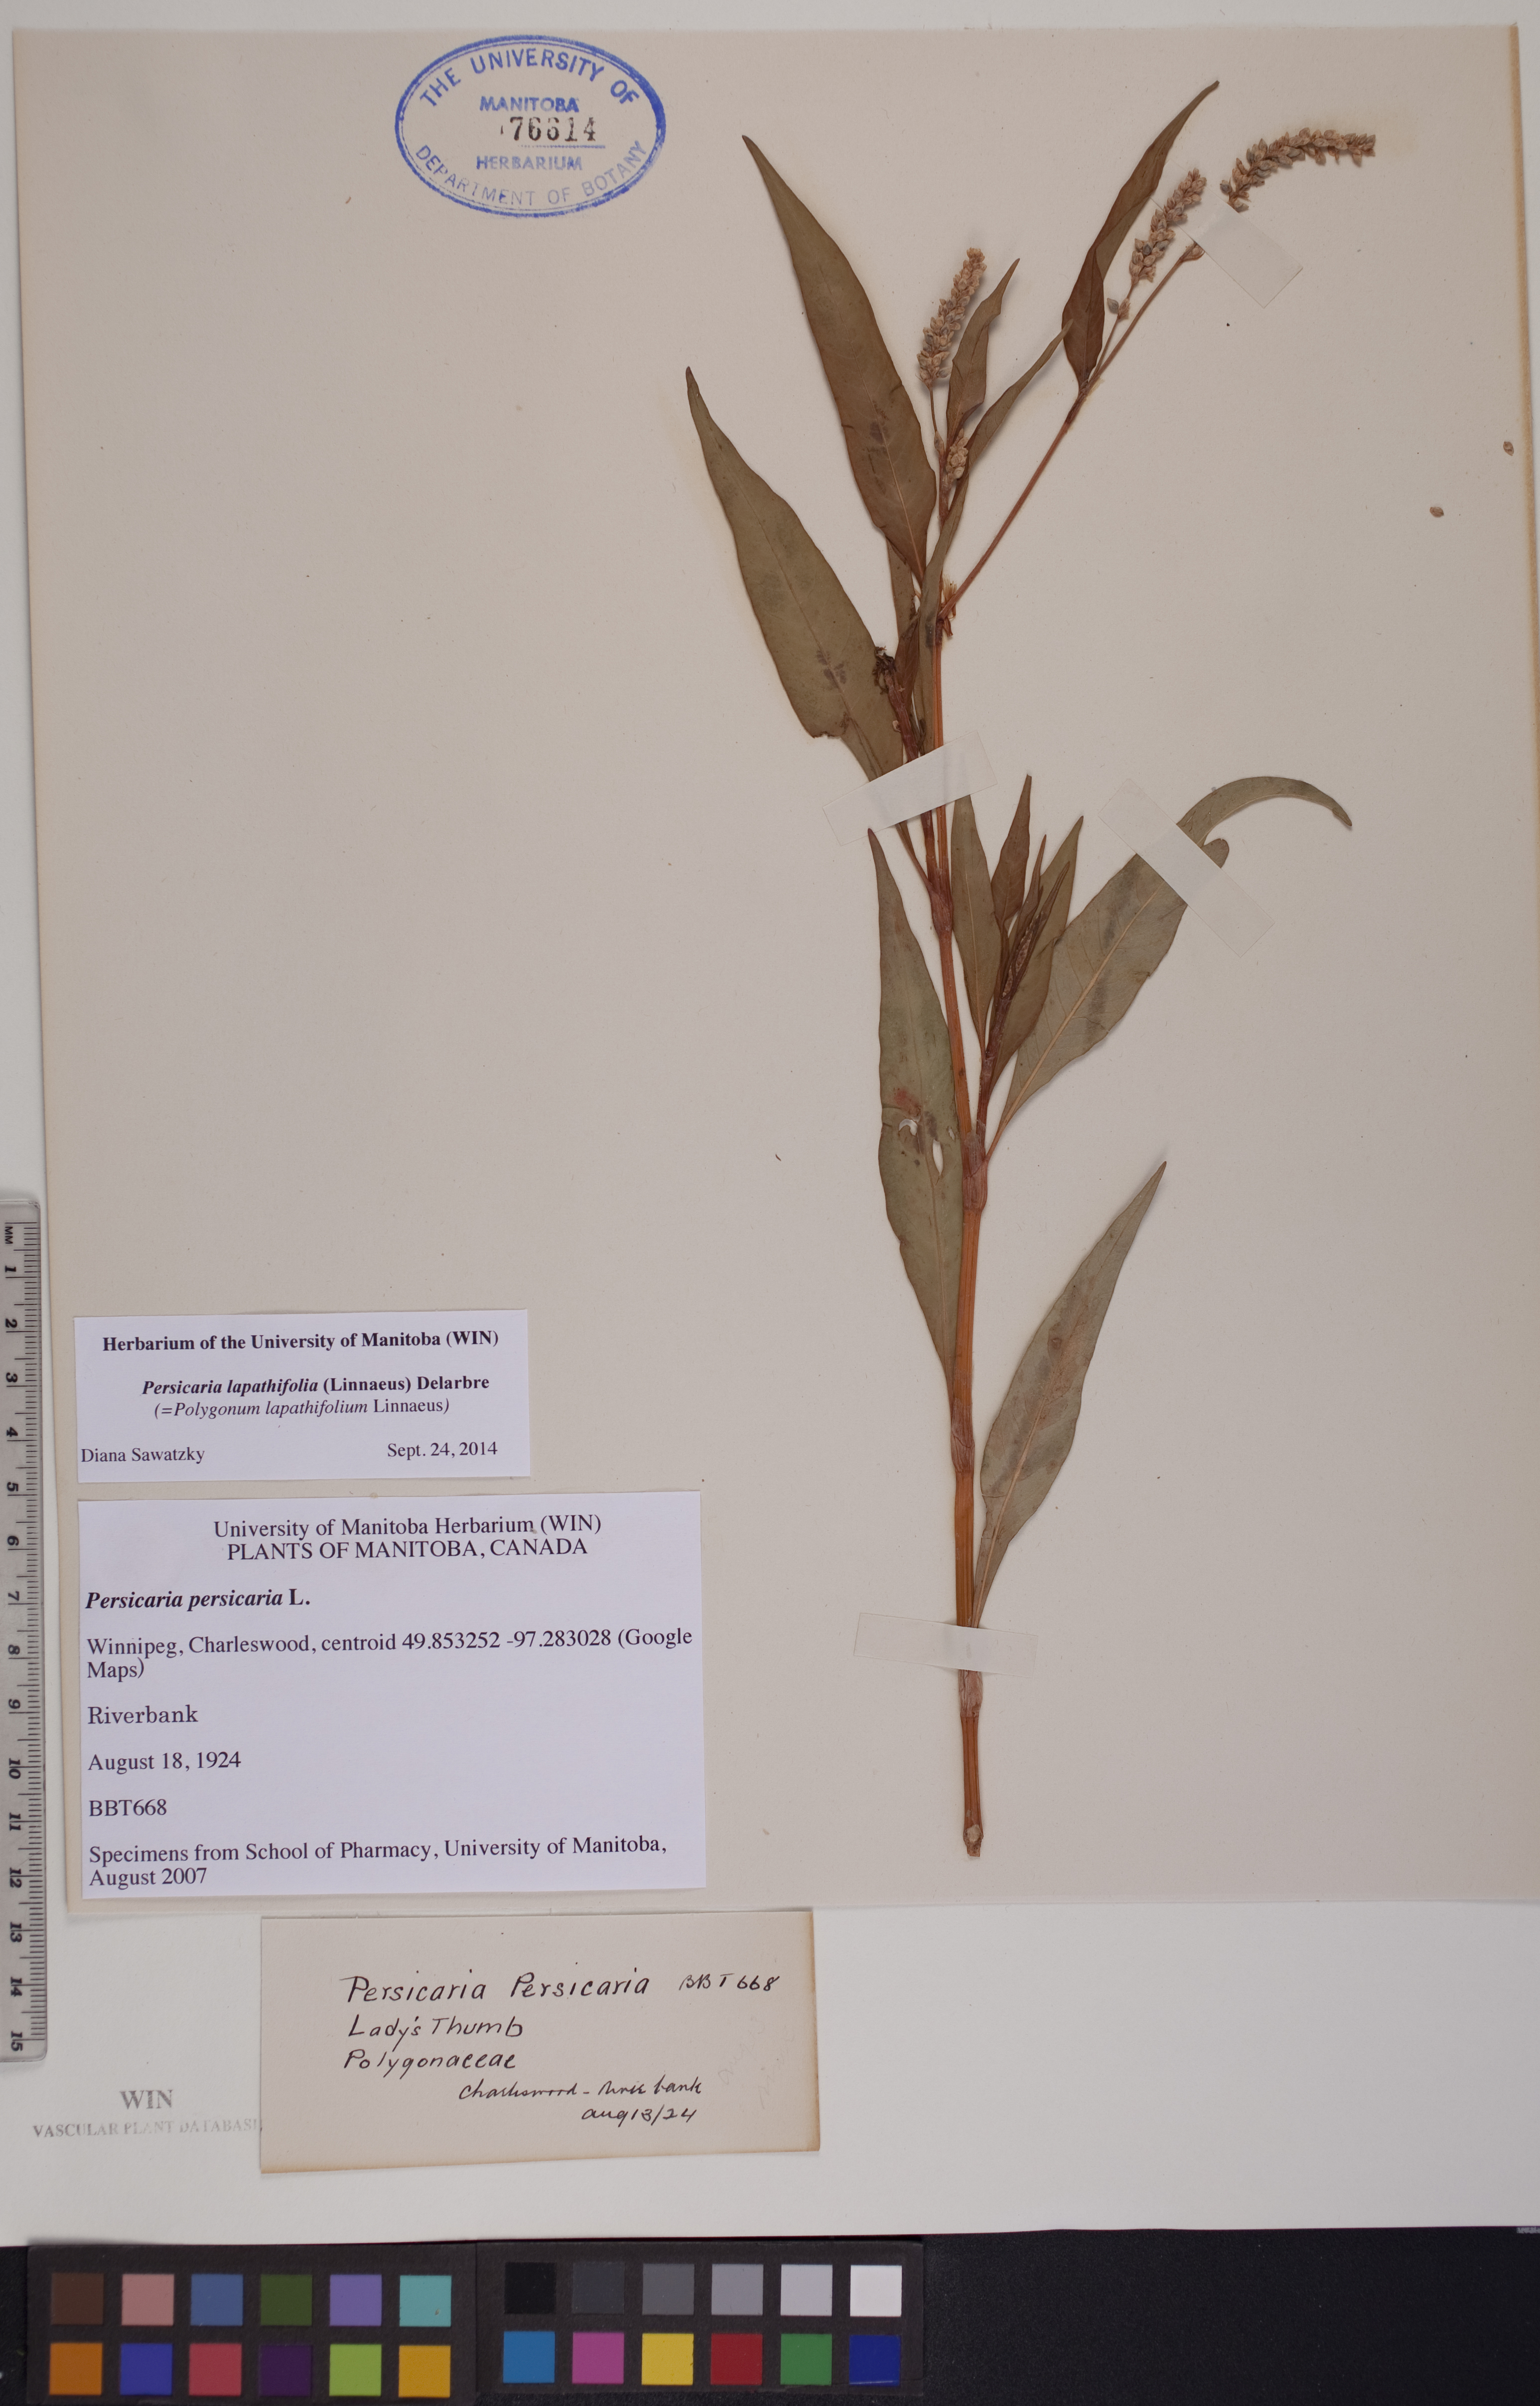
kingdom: Plantae
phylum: Tracheophyta
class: Magnoliopsida
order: Caryophyllales
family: Polygonaceae
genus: Persicaria
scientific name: Persicaria lapathifolia
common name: Curlytop knotweed
